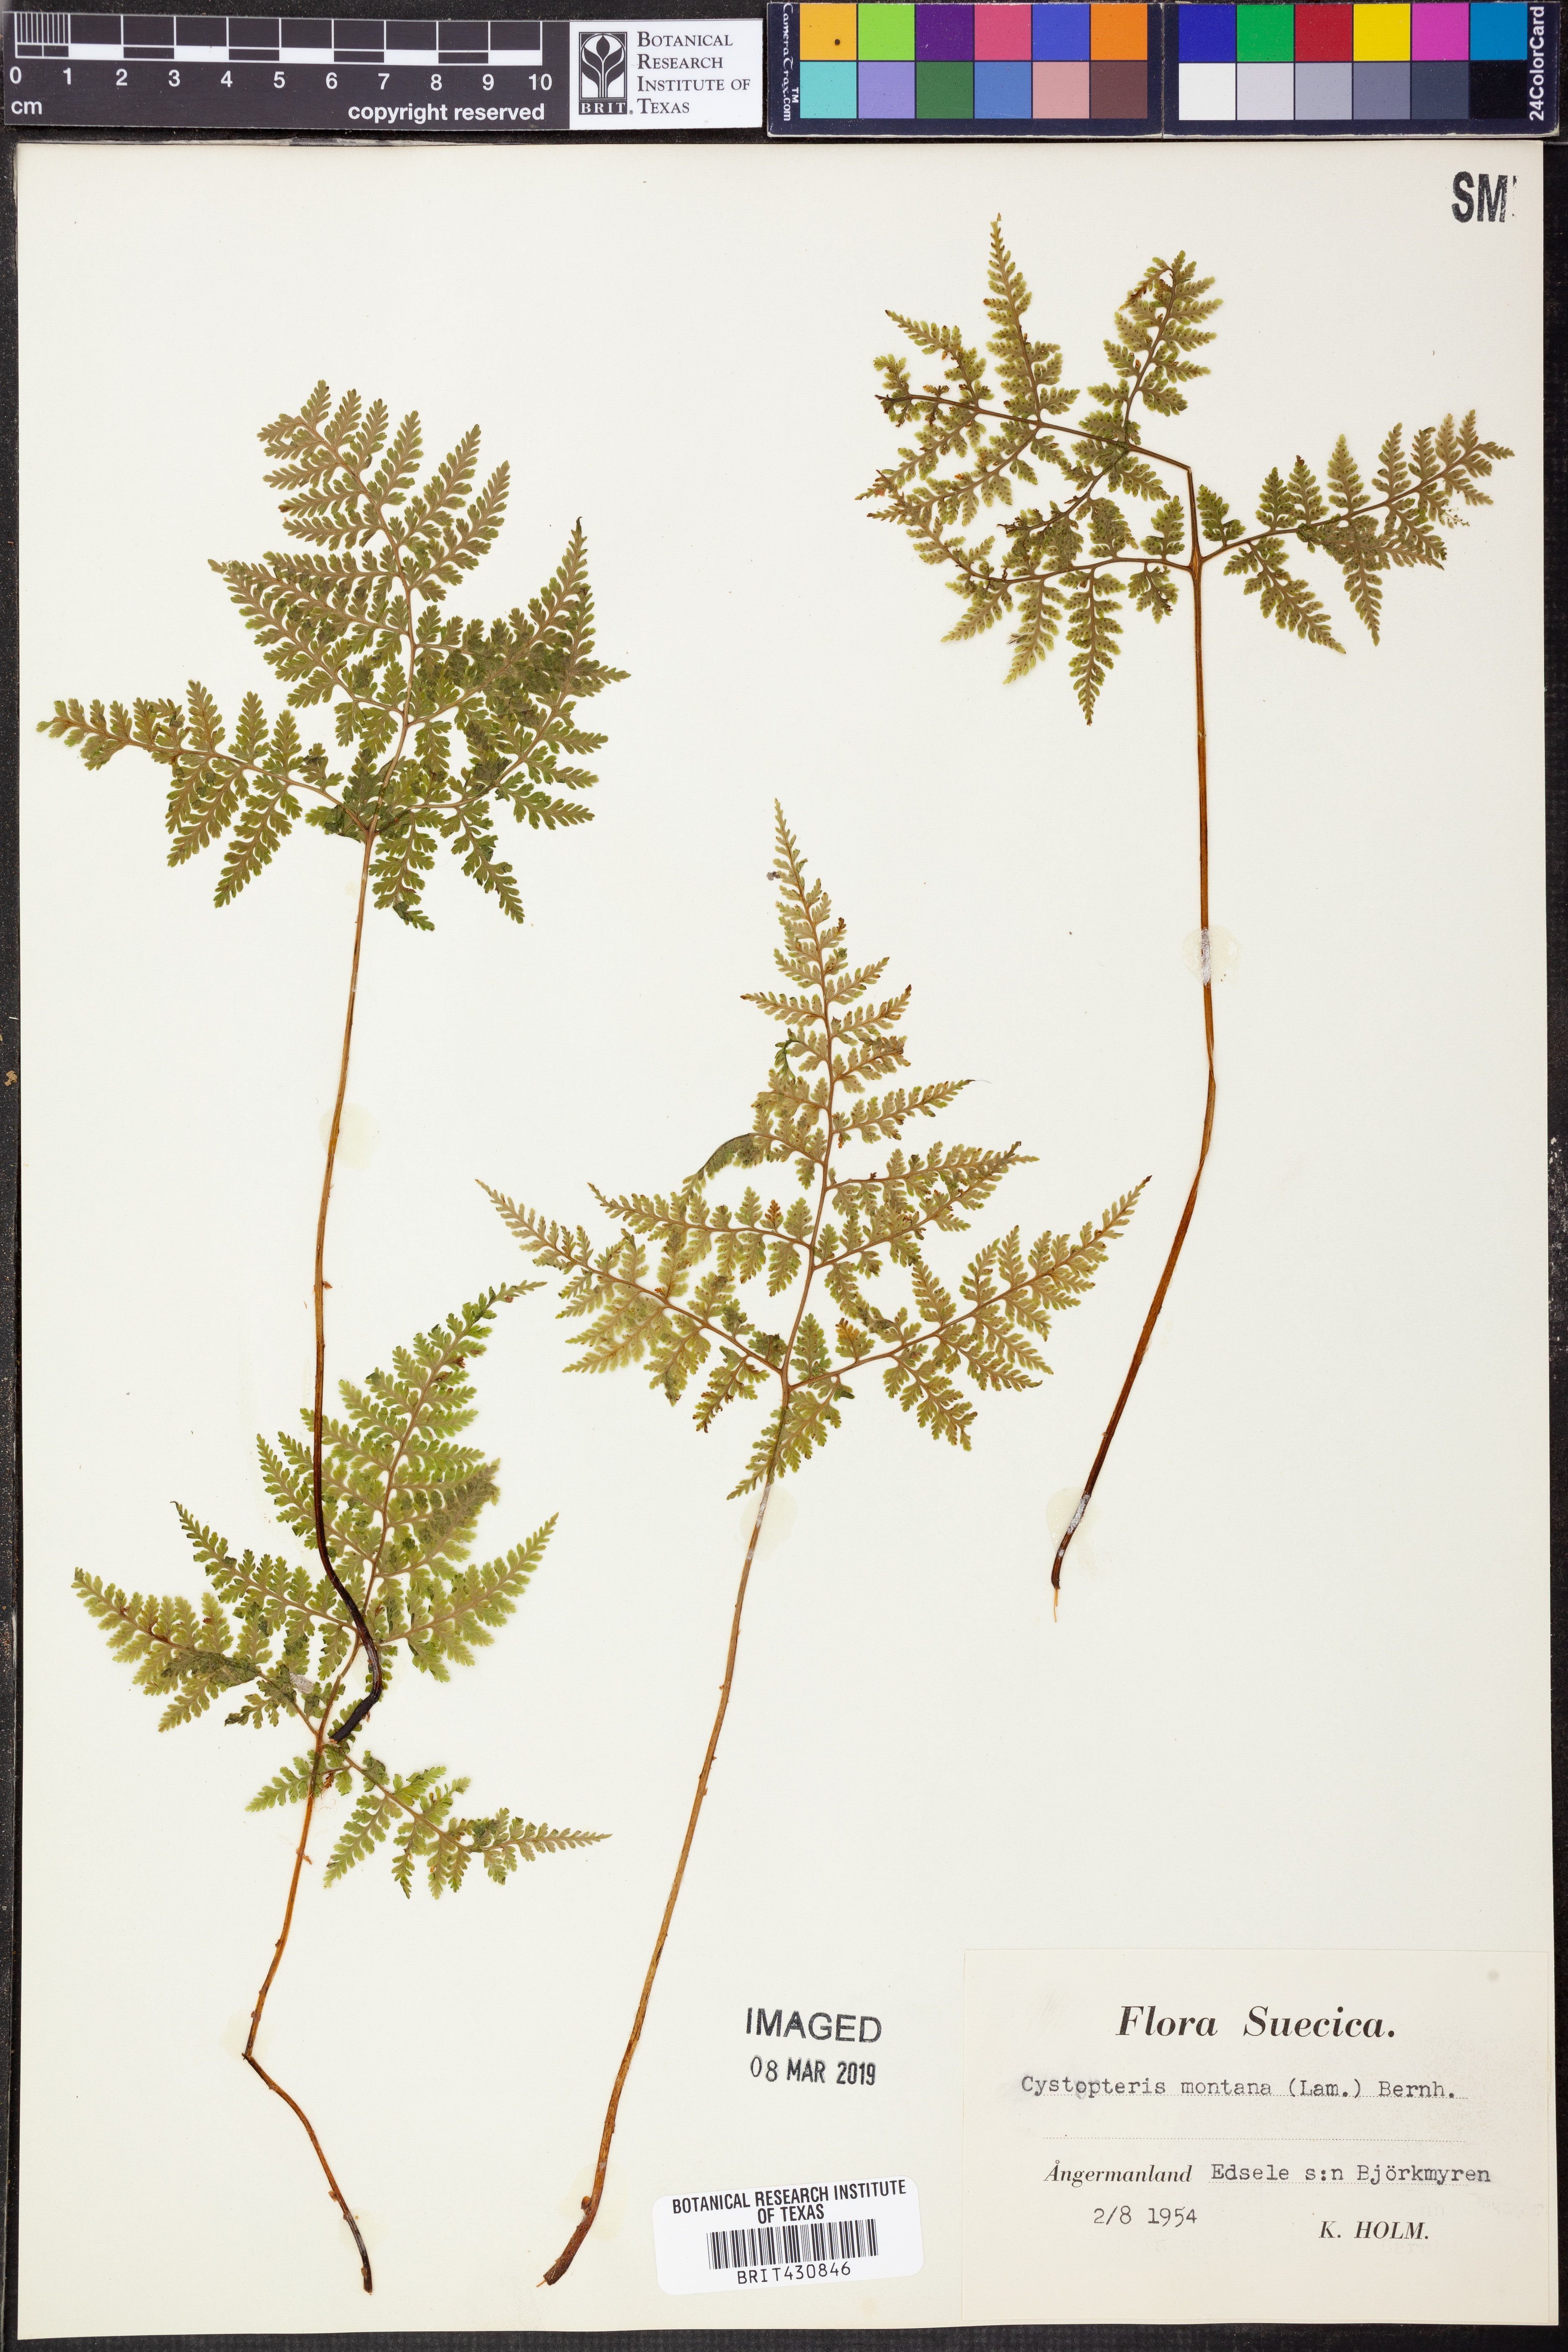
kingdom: Plantae
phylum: Tracheophyta
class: Polypodiopsida
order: Polypodiales
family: Cystopteridaceae
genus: Cystopteris
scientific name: Cystopteris montana
